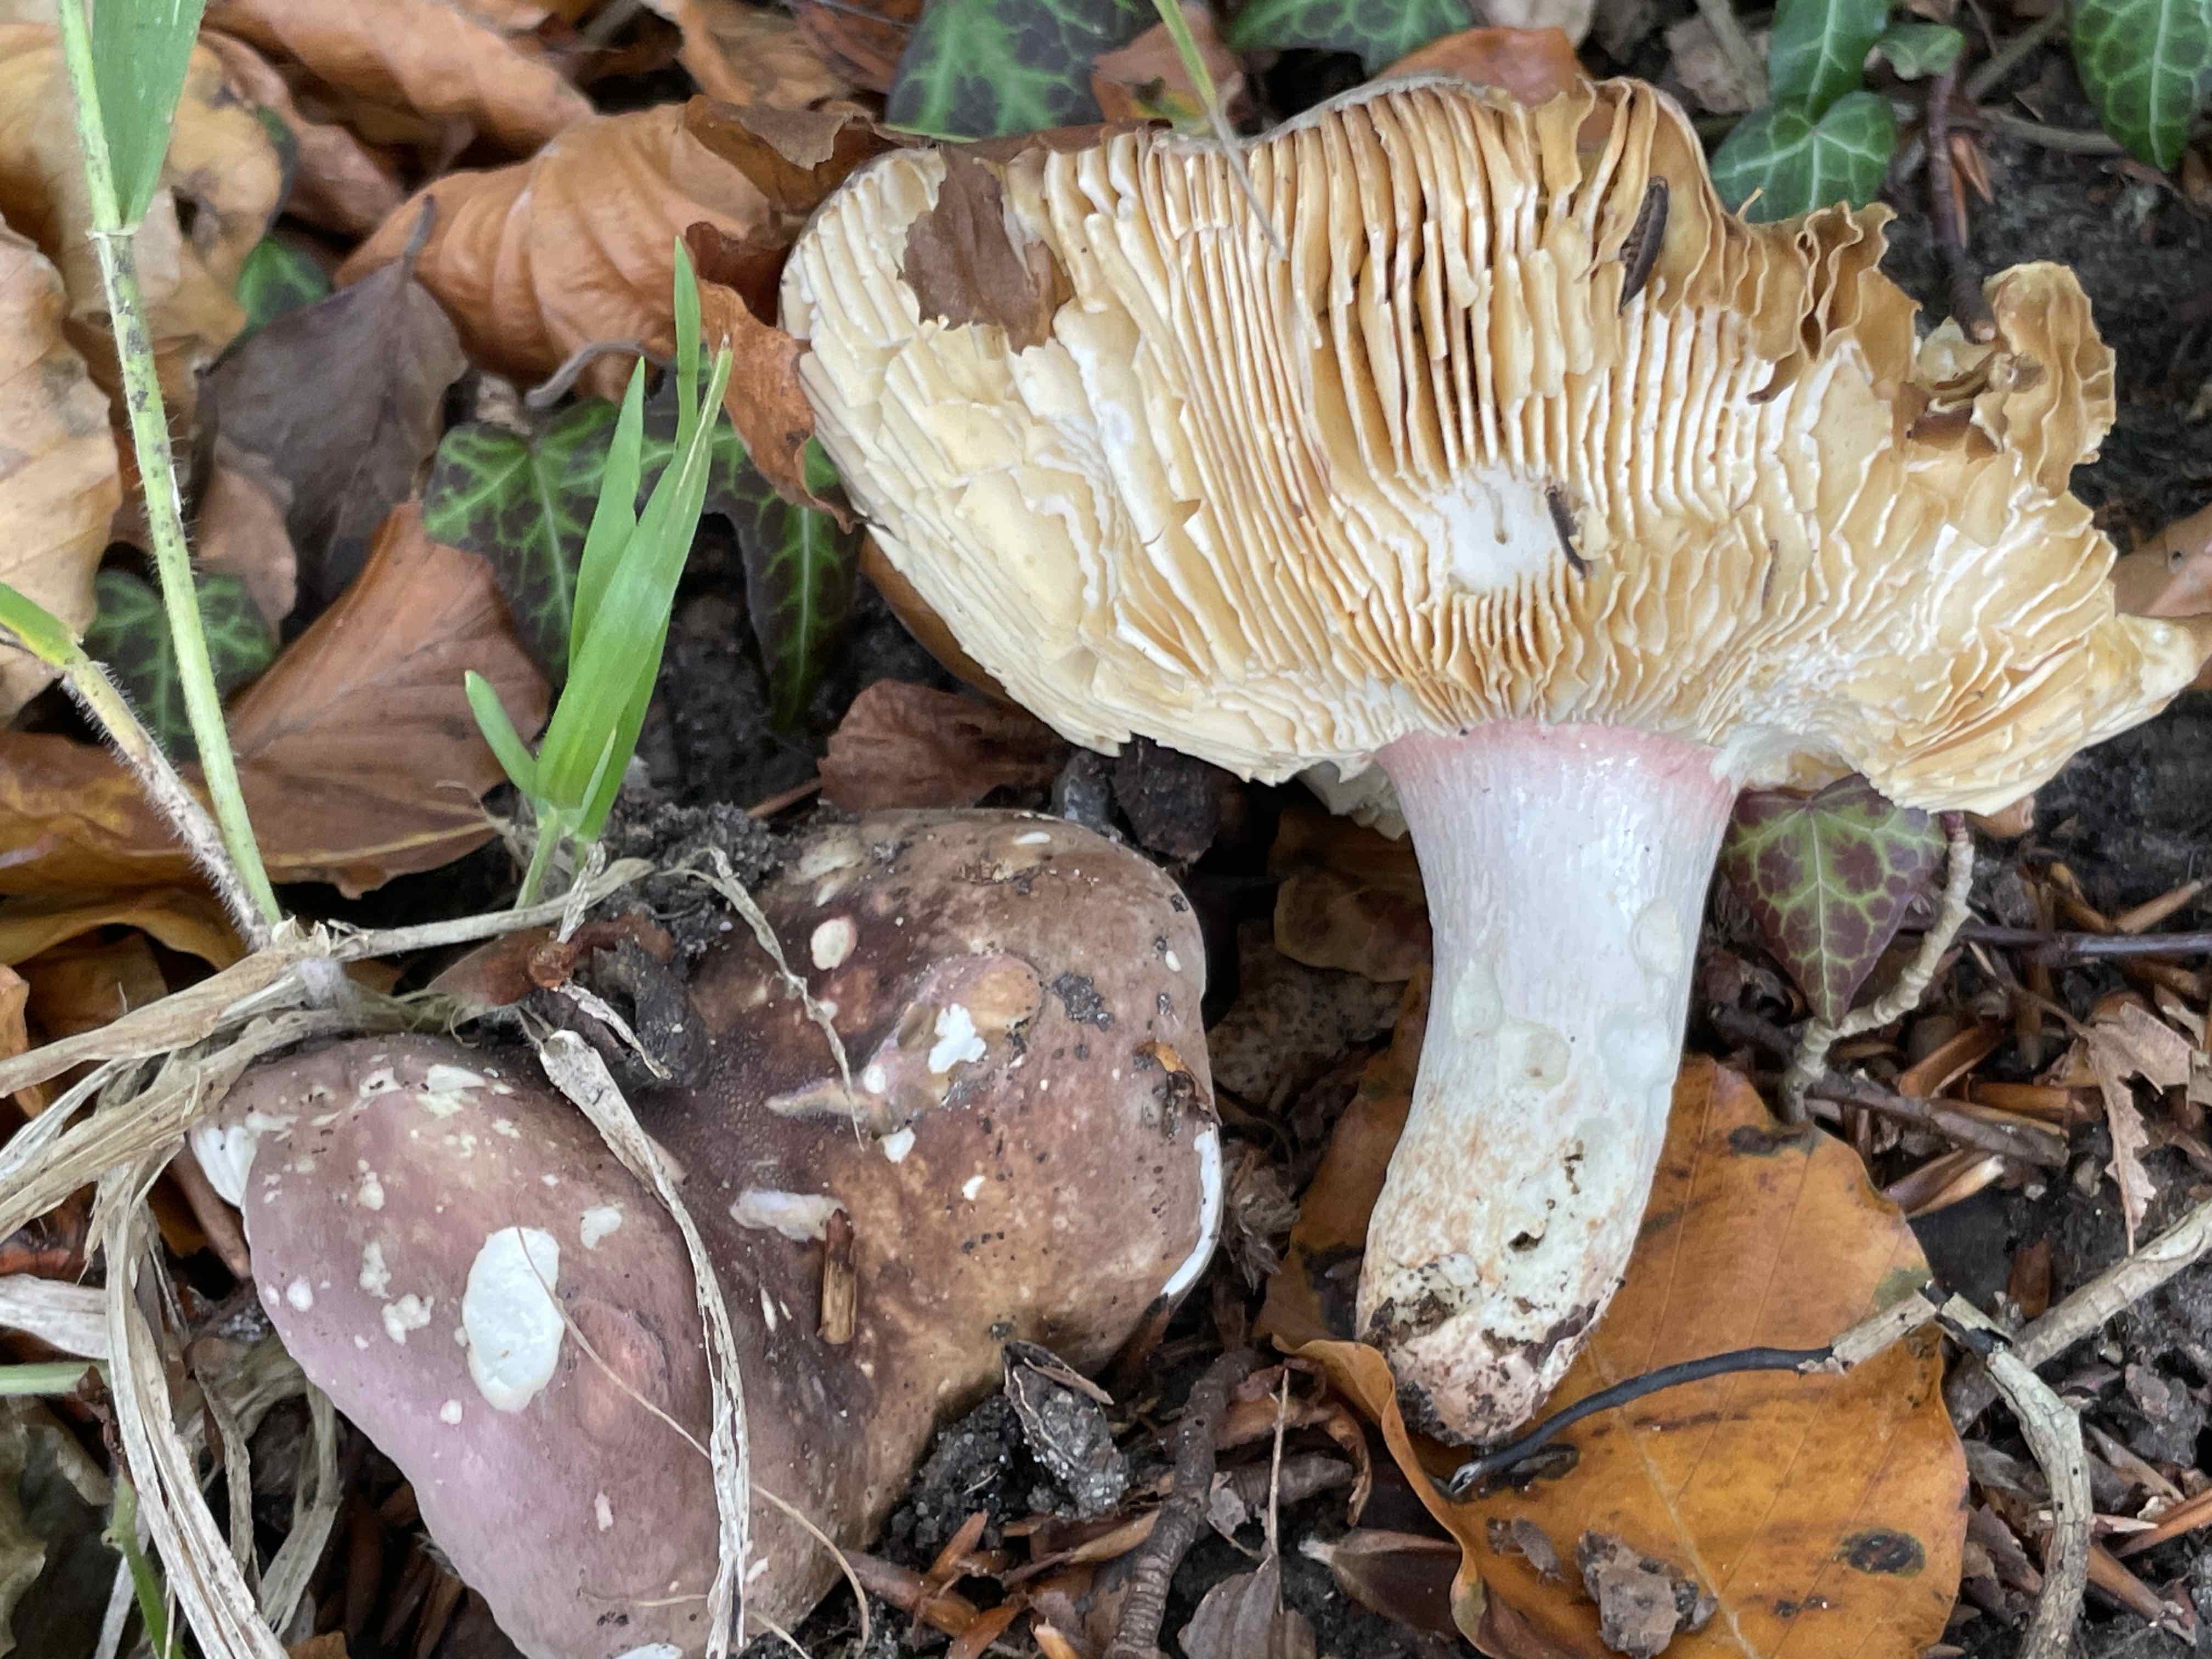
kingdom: Fungi
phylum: Basidiomycota
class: Agaricomycetes
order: Russulales
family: Russulaceae
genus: Russula
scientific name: Russula olivacea
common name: stor skørhat
